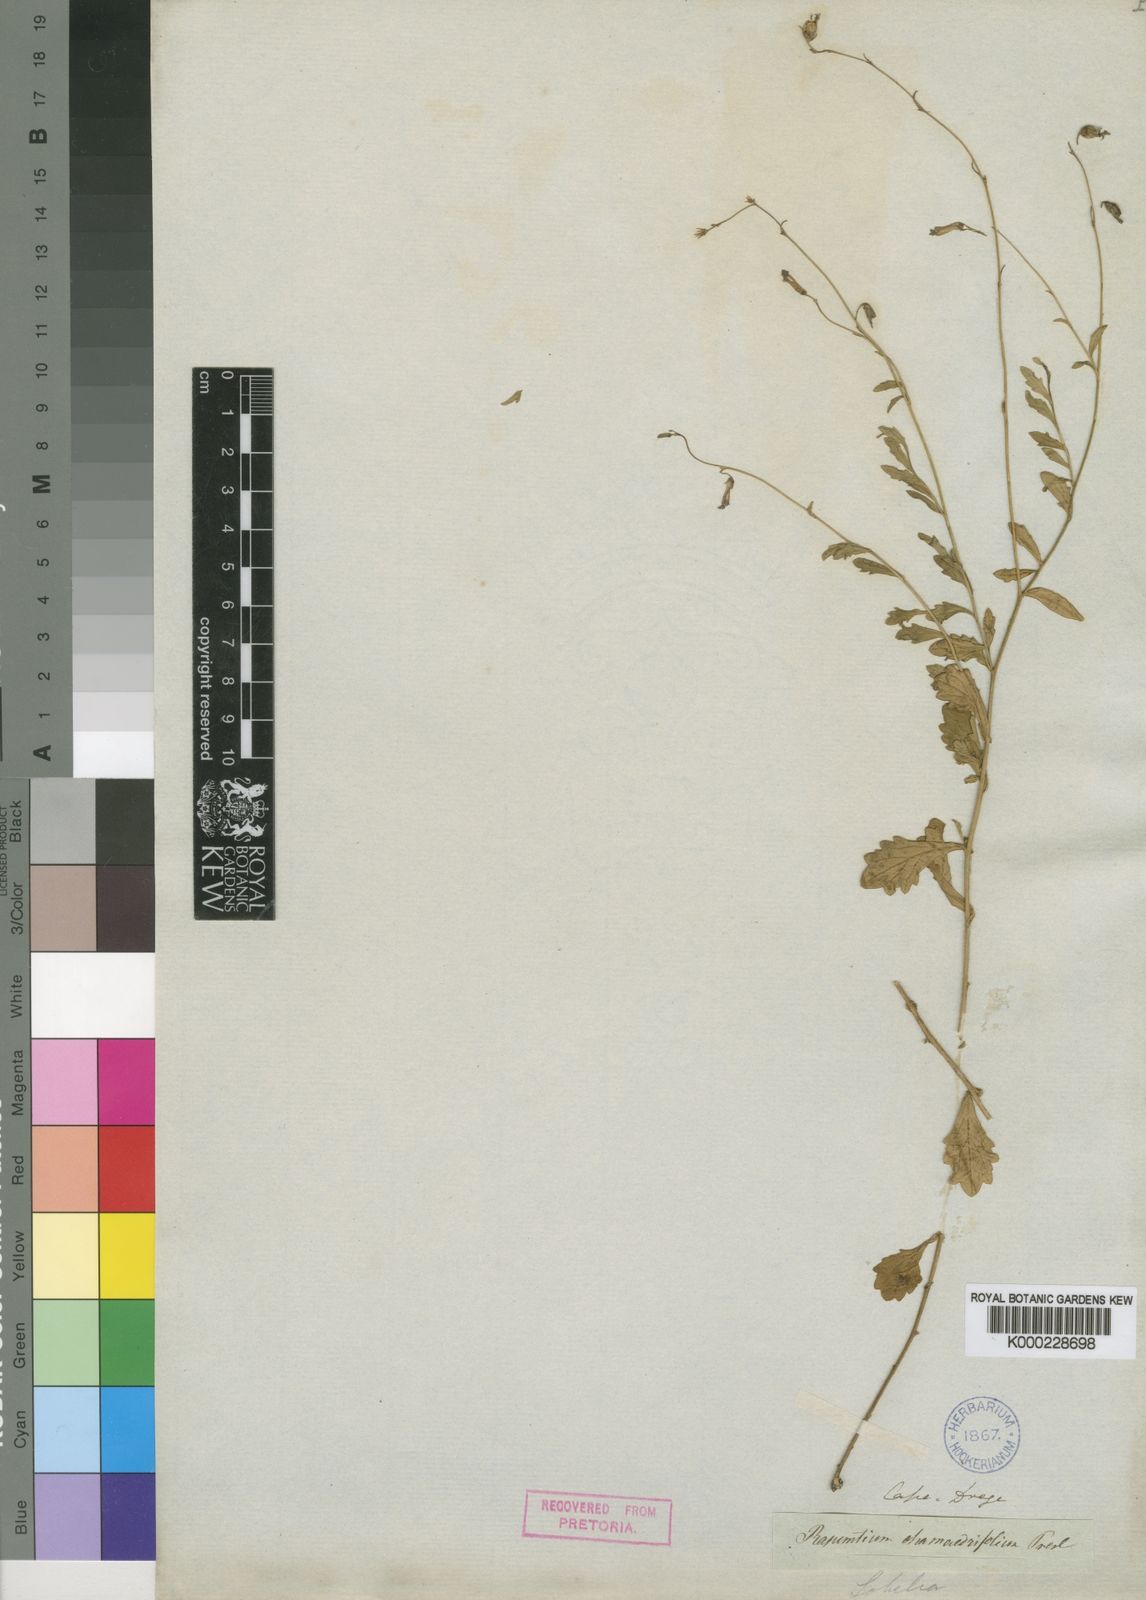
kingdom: Plantae
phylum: Tracheophyta
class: Magnoliopsida
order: Asterales
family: Campanulaceae
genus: Lobelia
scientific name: Lobelia chamaedryfolia
